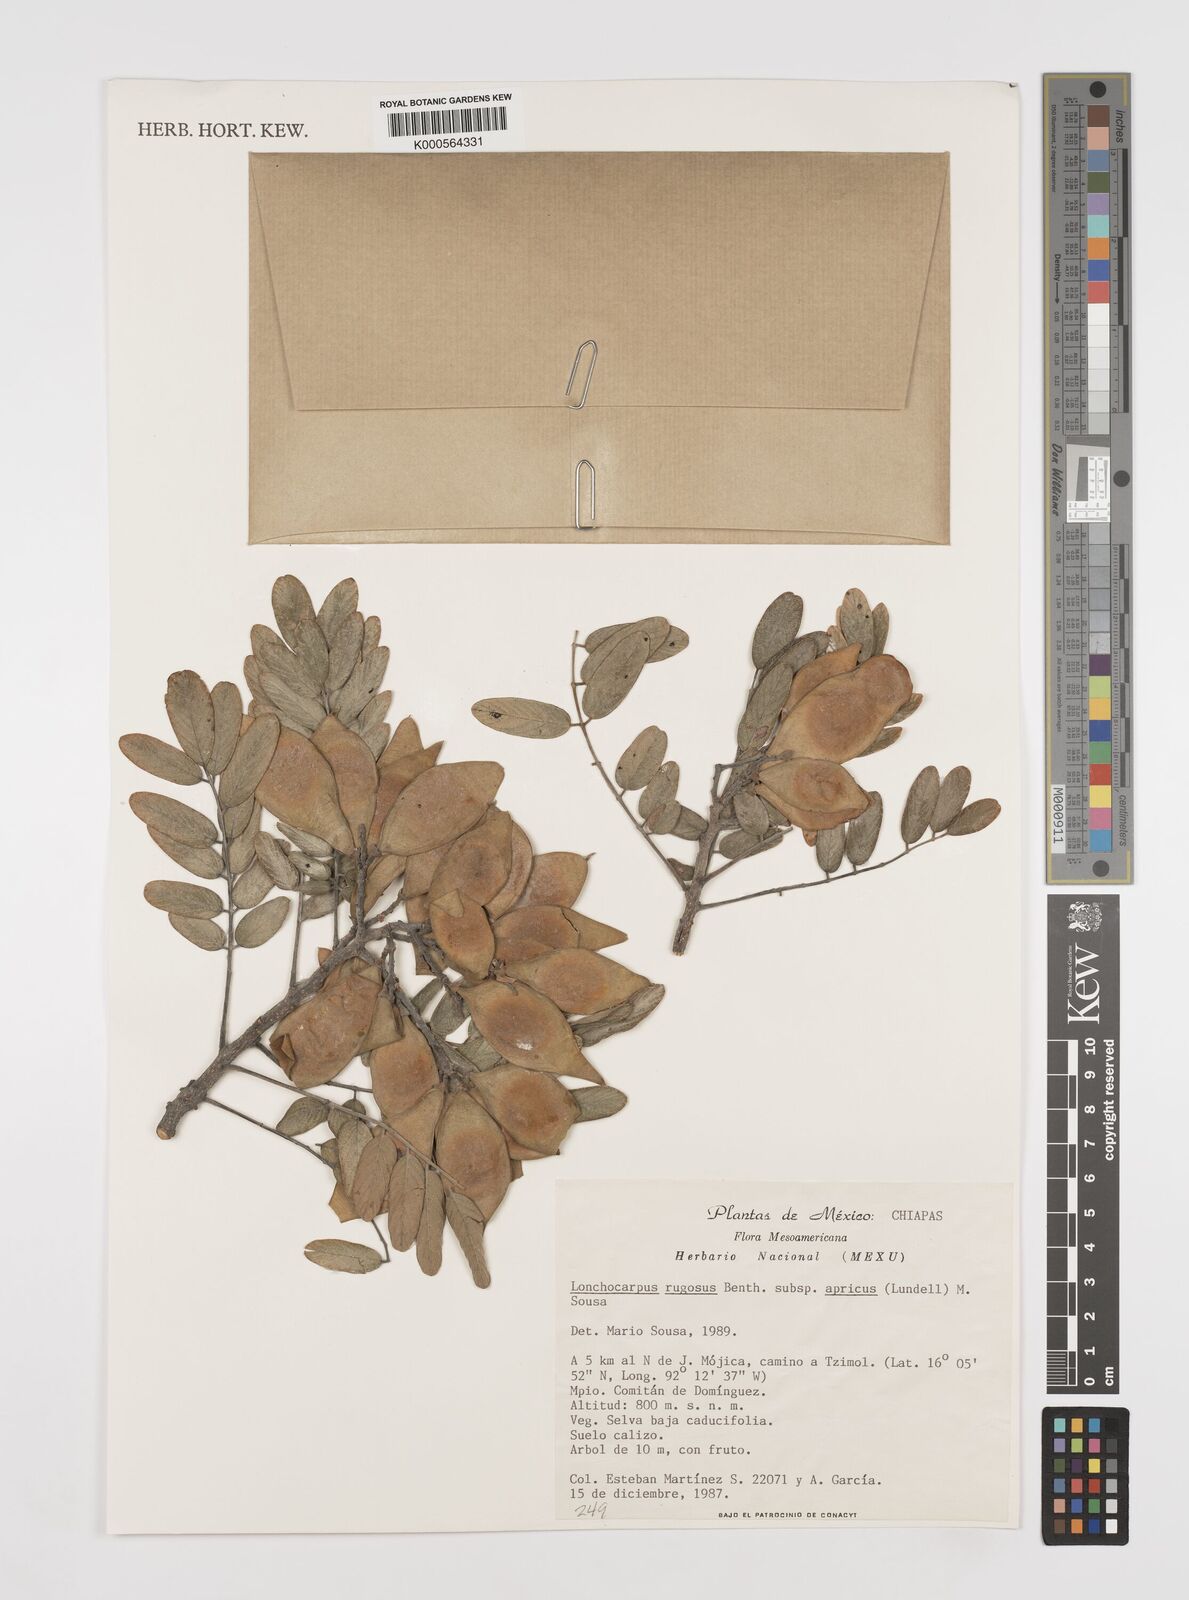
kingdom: Plantae
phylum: Tracheophyta
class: Magnoliopsida
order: Fabales
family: Fabaceae
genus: Lonchocarpus
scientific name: Lonchocarpus rugosus
